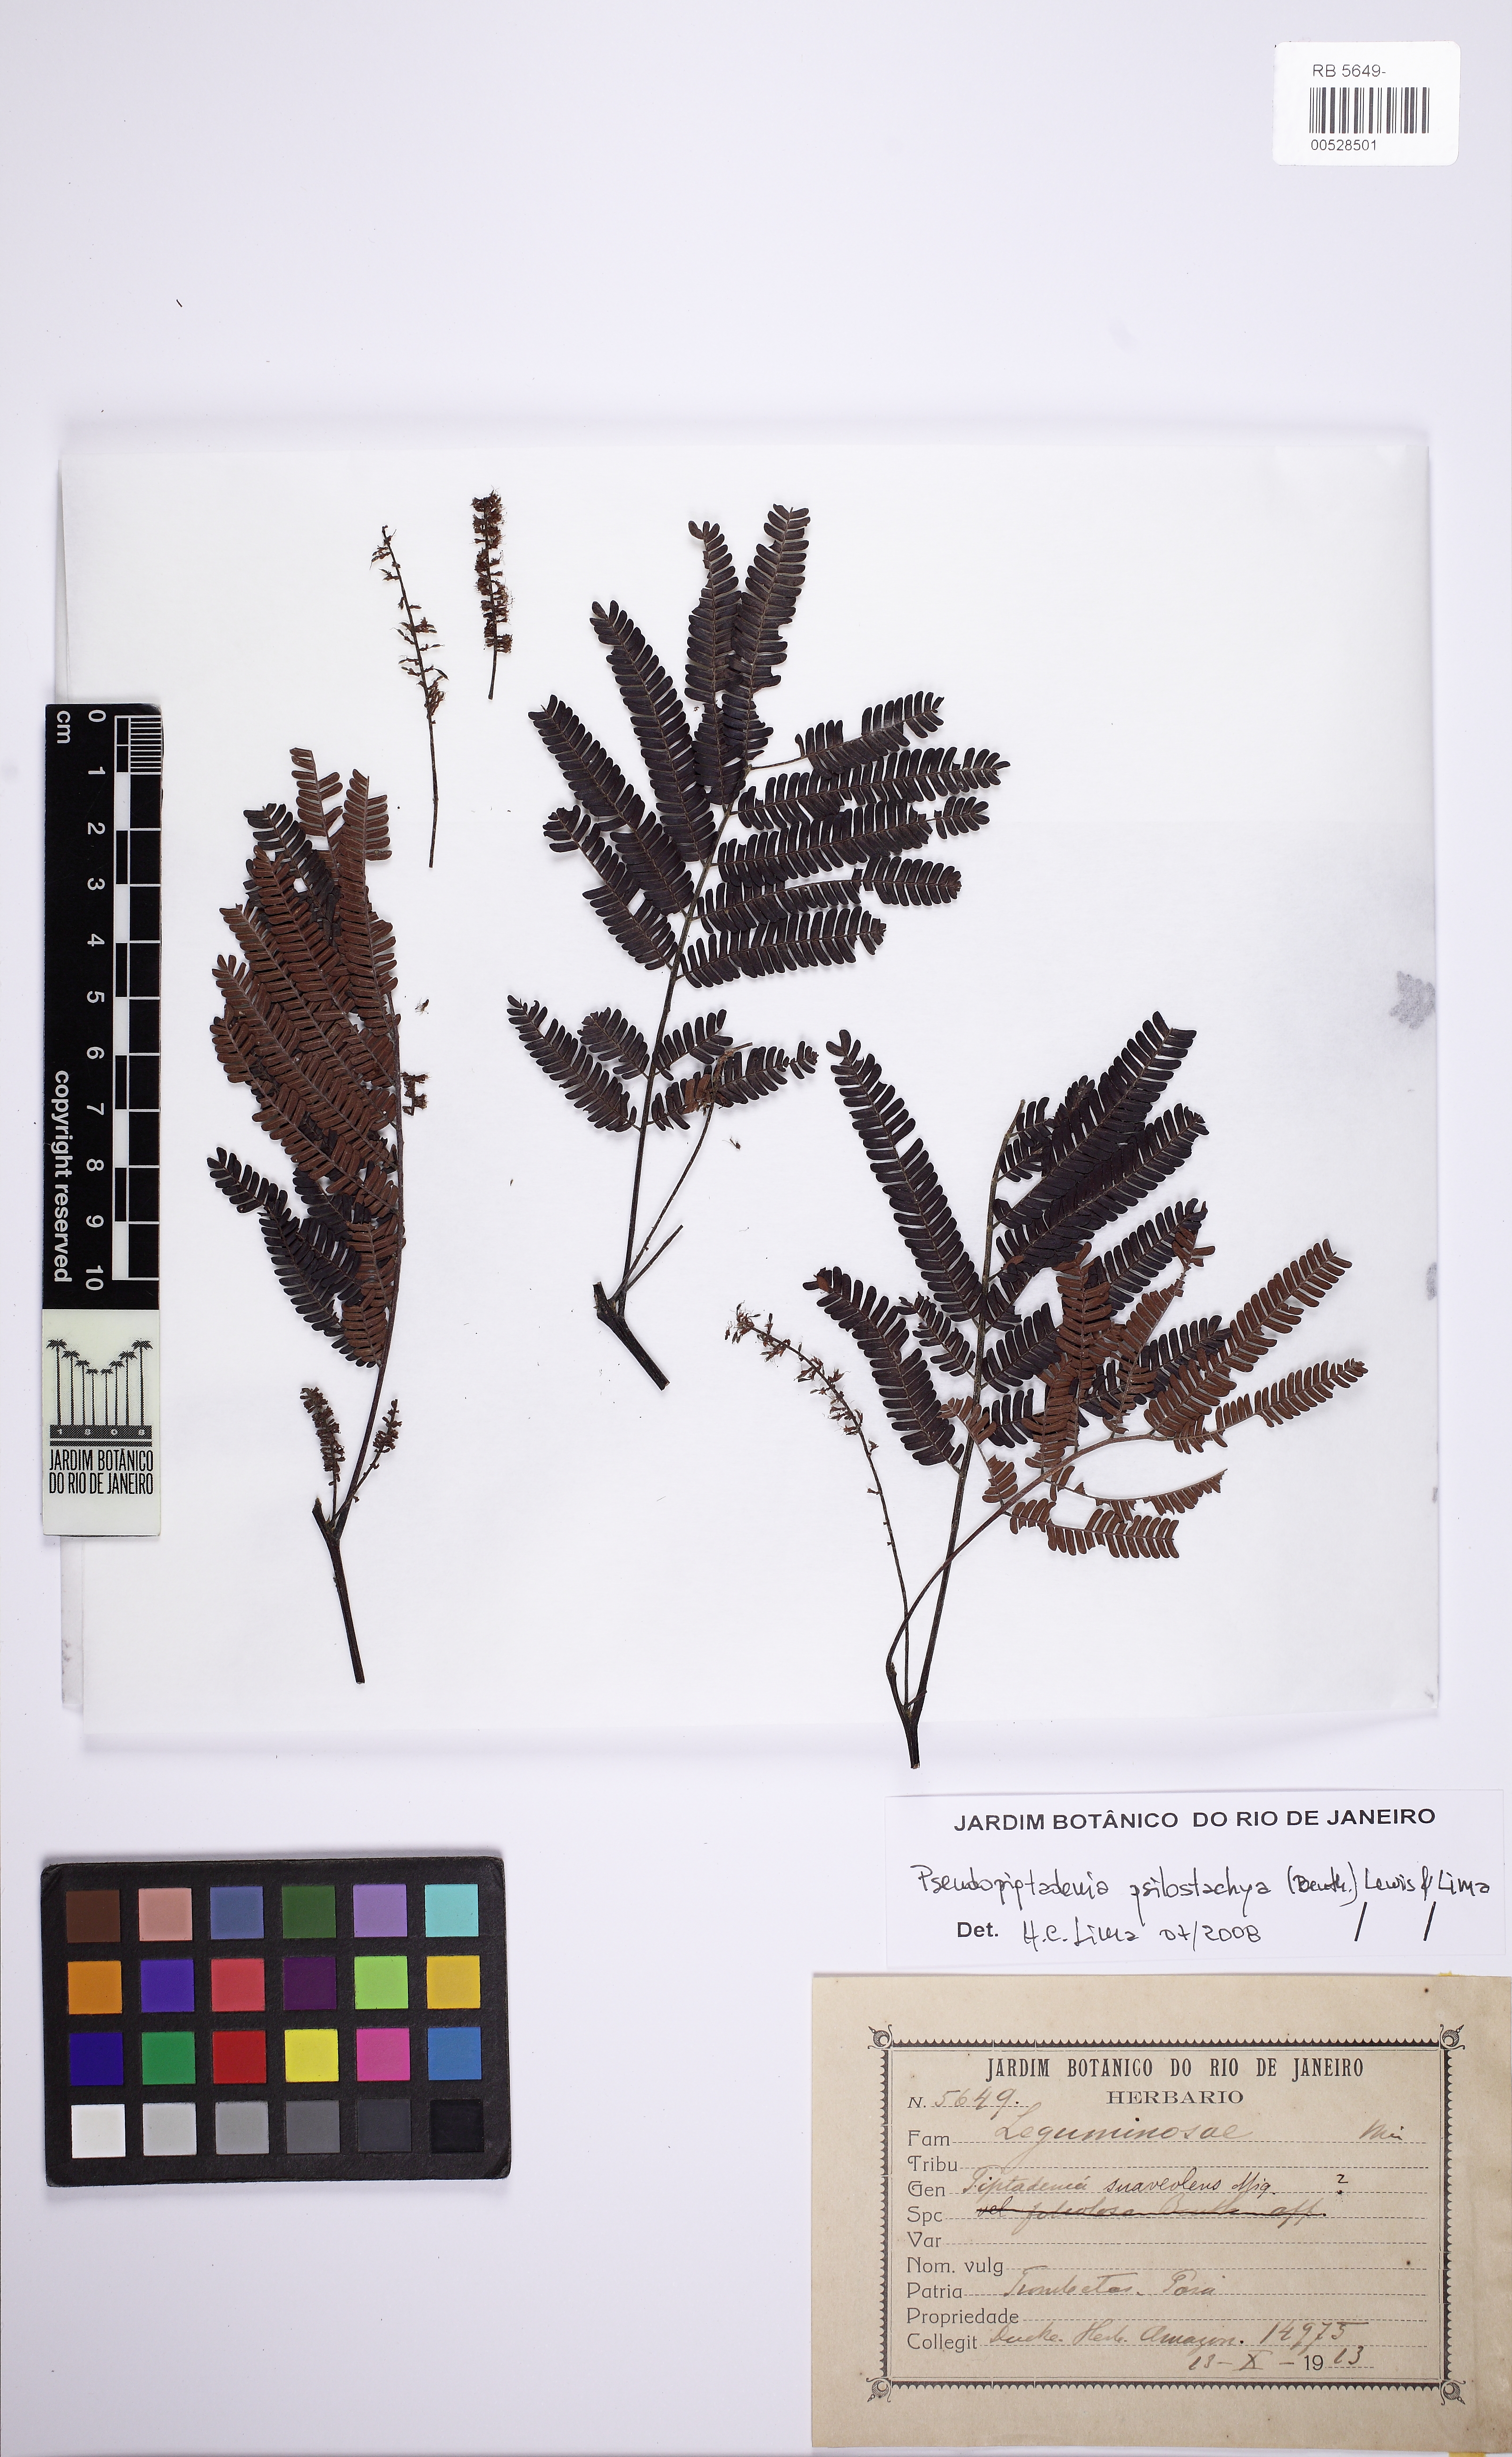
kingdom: Plantae
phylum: Tracheophyta
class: Magnoliopsida
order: Fabales
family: Fabaceae
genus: Pseudopiptadenia
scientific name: Pseudopiptadenia psilostachya
